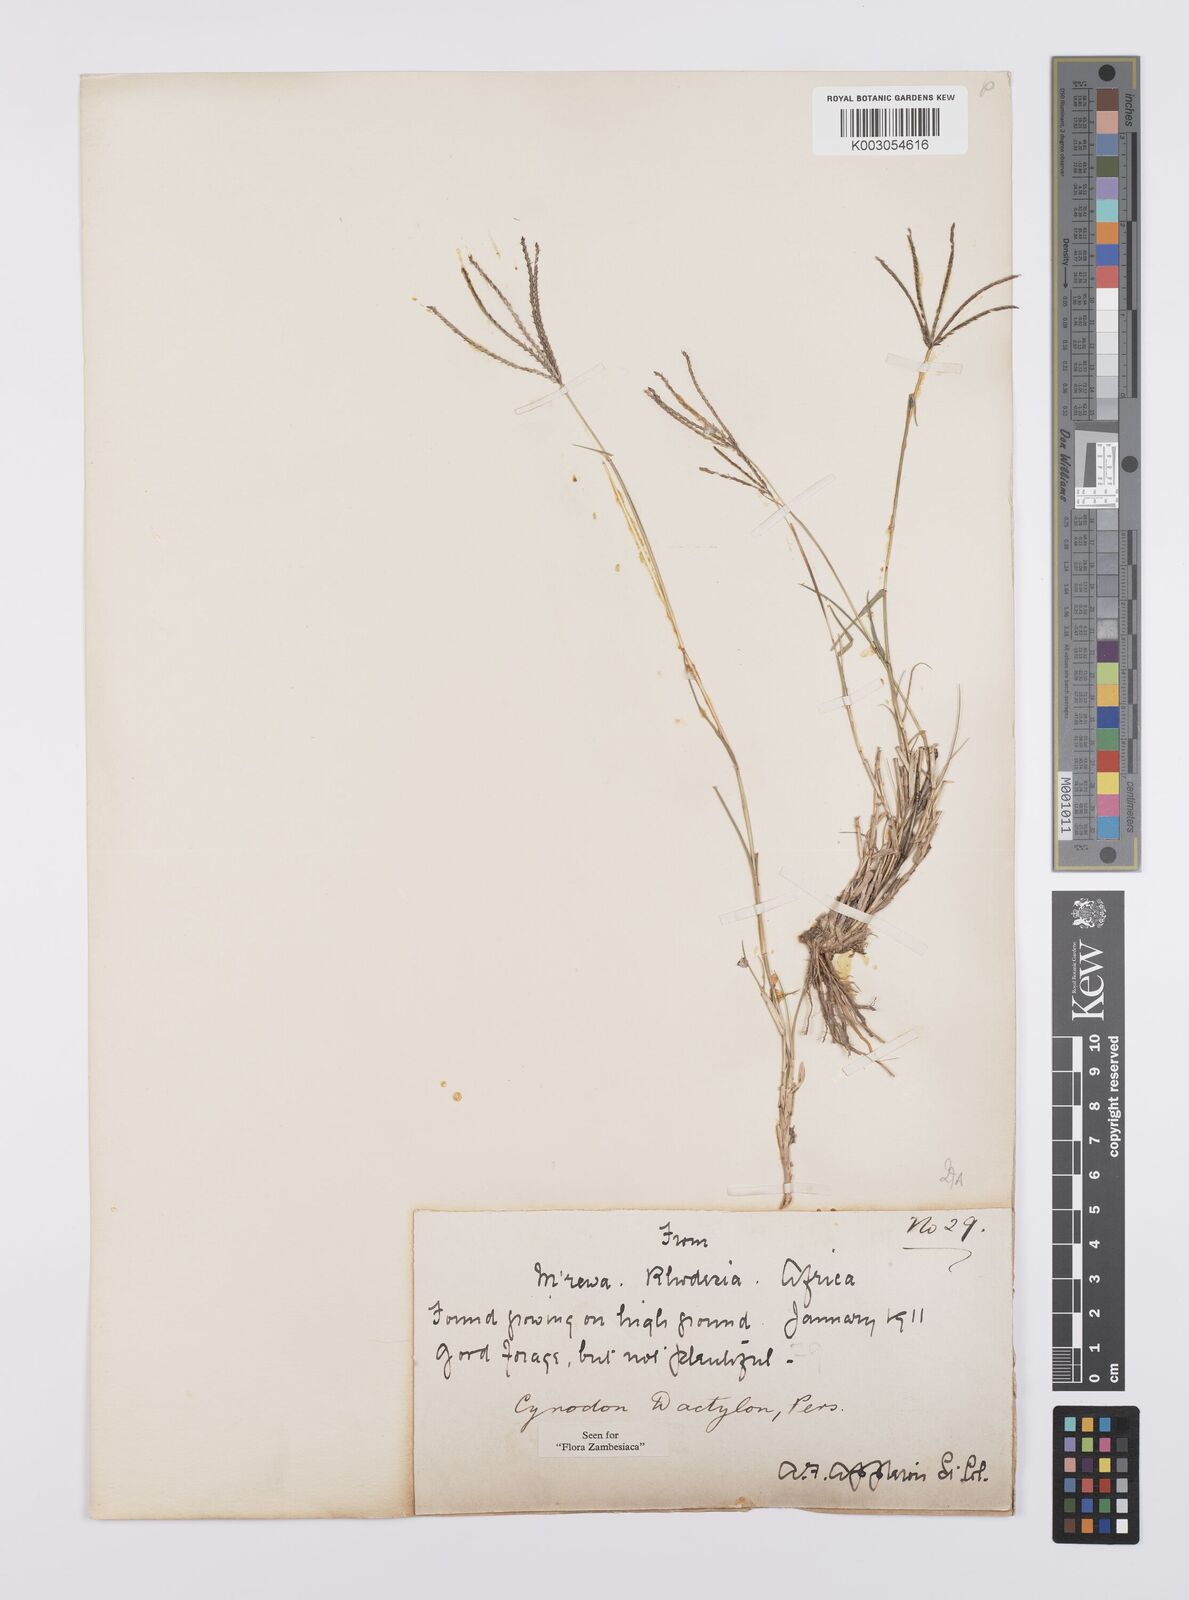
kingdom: Plantae
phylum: Tracheophyta
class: Liliopsida
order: Poales
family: Poaceae
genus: Cynodon
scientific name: Cynodon dactylon
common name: Bermuda grass
